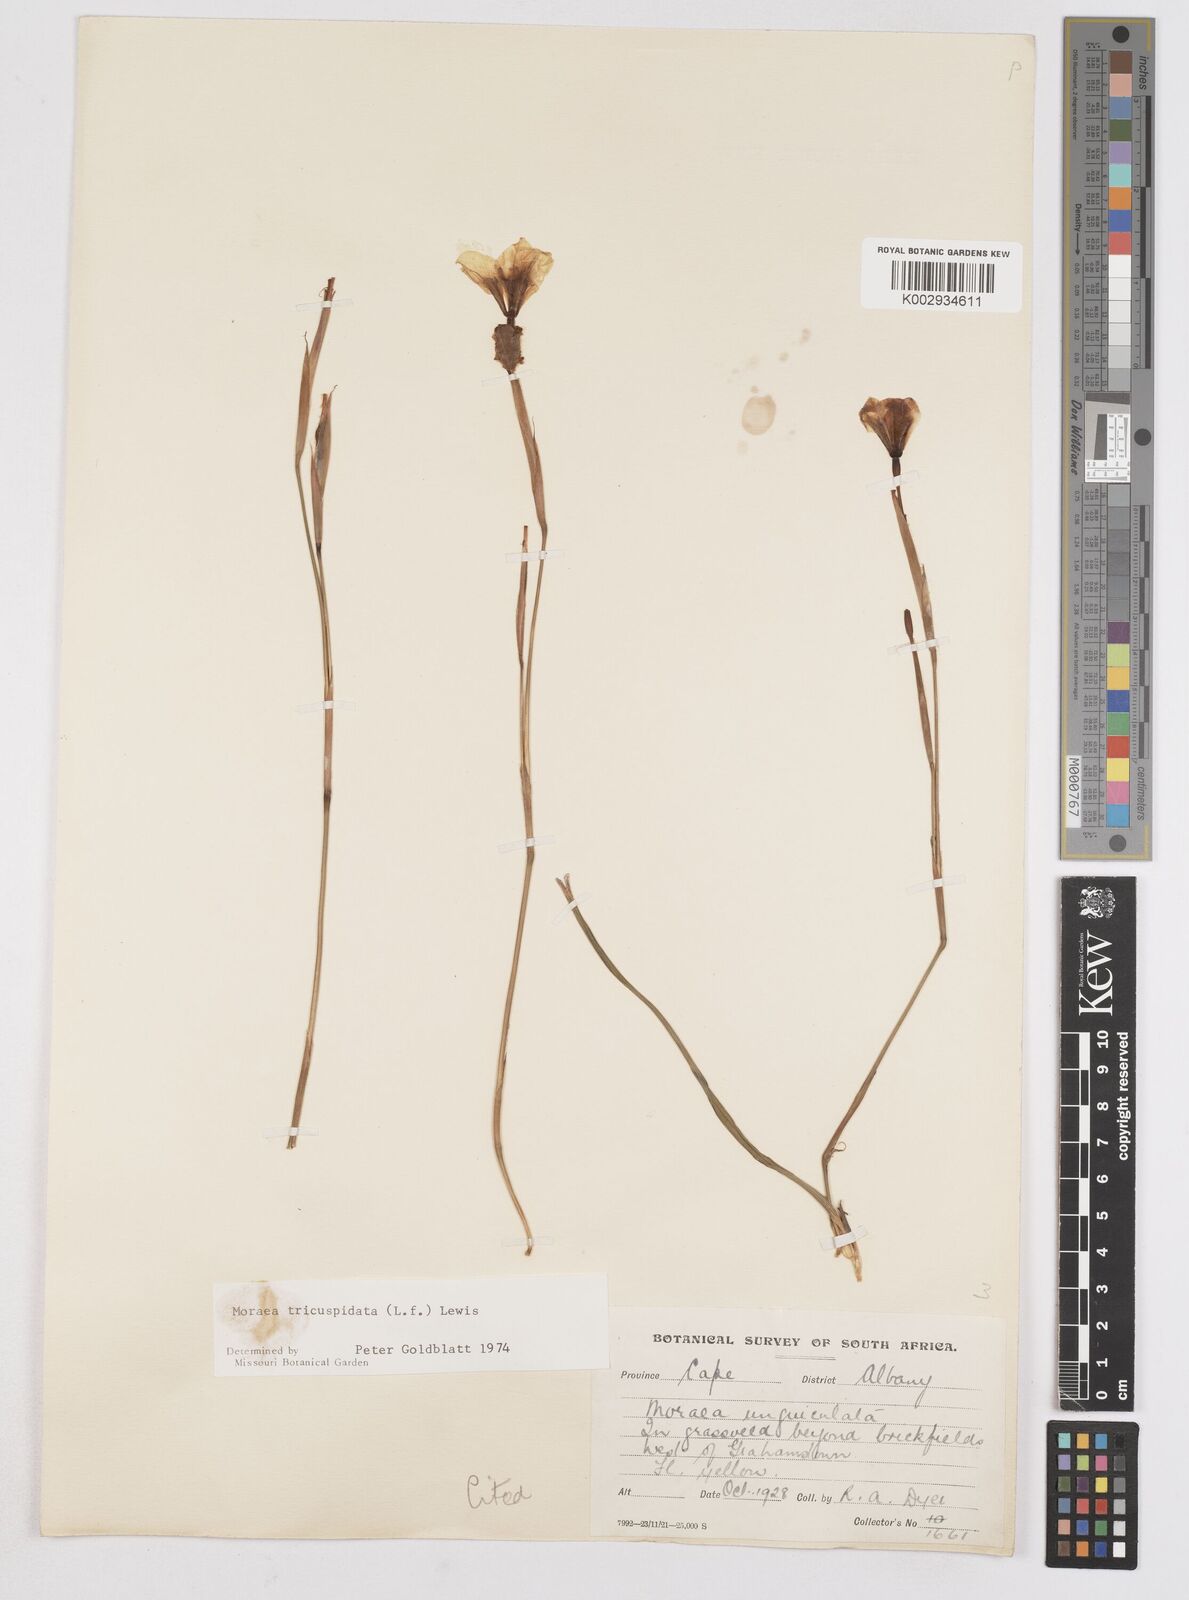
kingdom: Plantae
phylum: Tracheophyta
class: Liliopsida
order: Asparagales
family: Iridaceae
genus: Moraea
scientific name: Moraea tricuspidata
